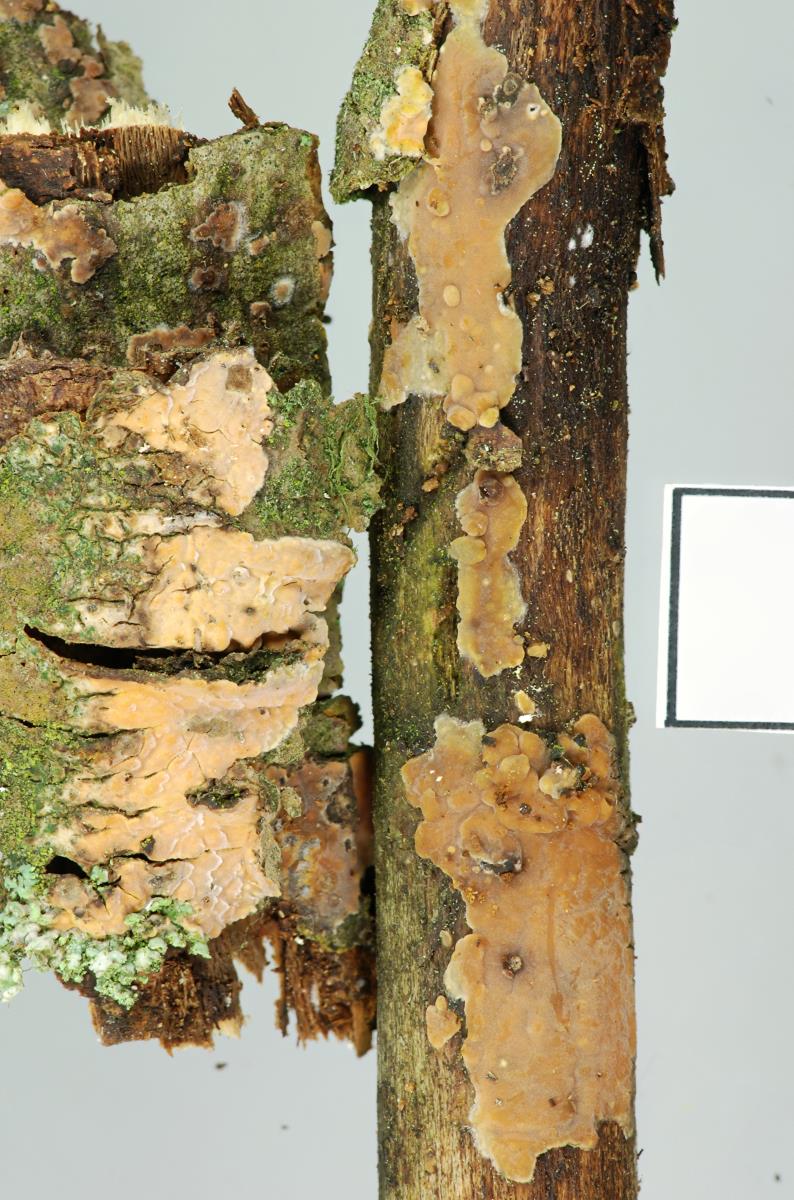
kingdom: Fungi
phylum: Basidiomycota
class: Agaricomycetes
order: Russulales
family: Peniophoraceae
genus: Peniophora
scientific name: Peniophora incarnata
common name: Rosy crust
